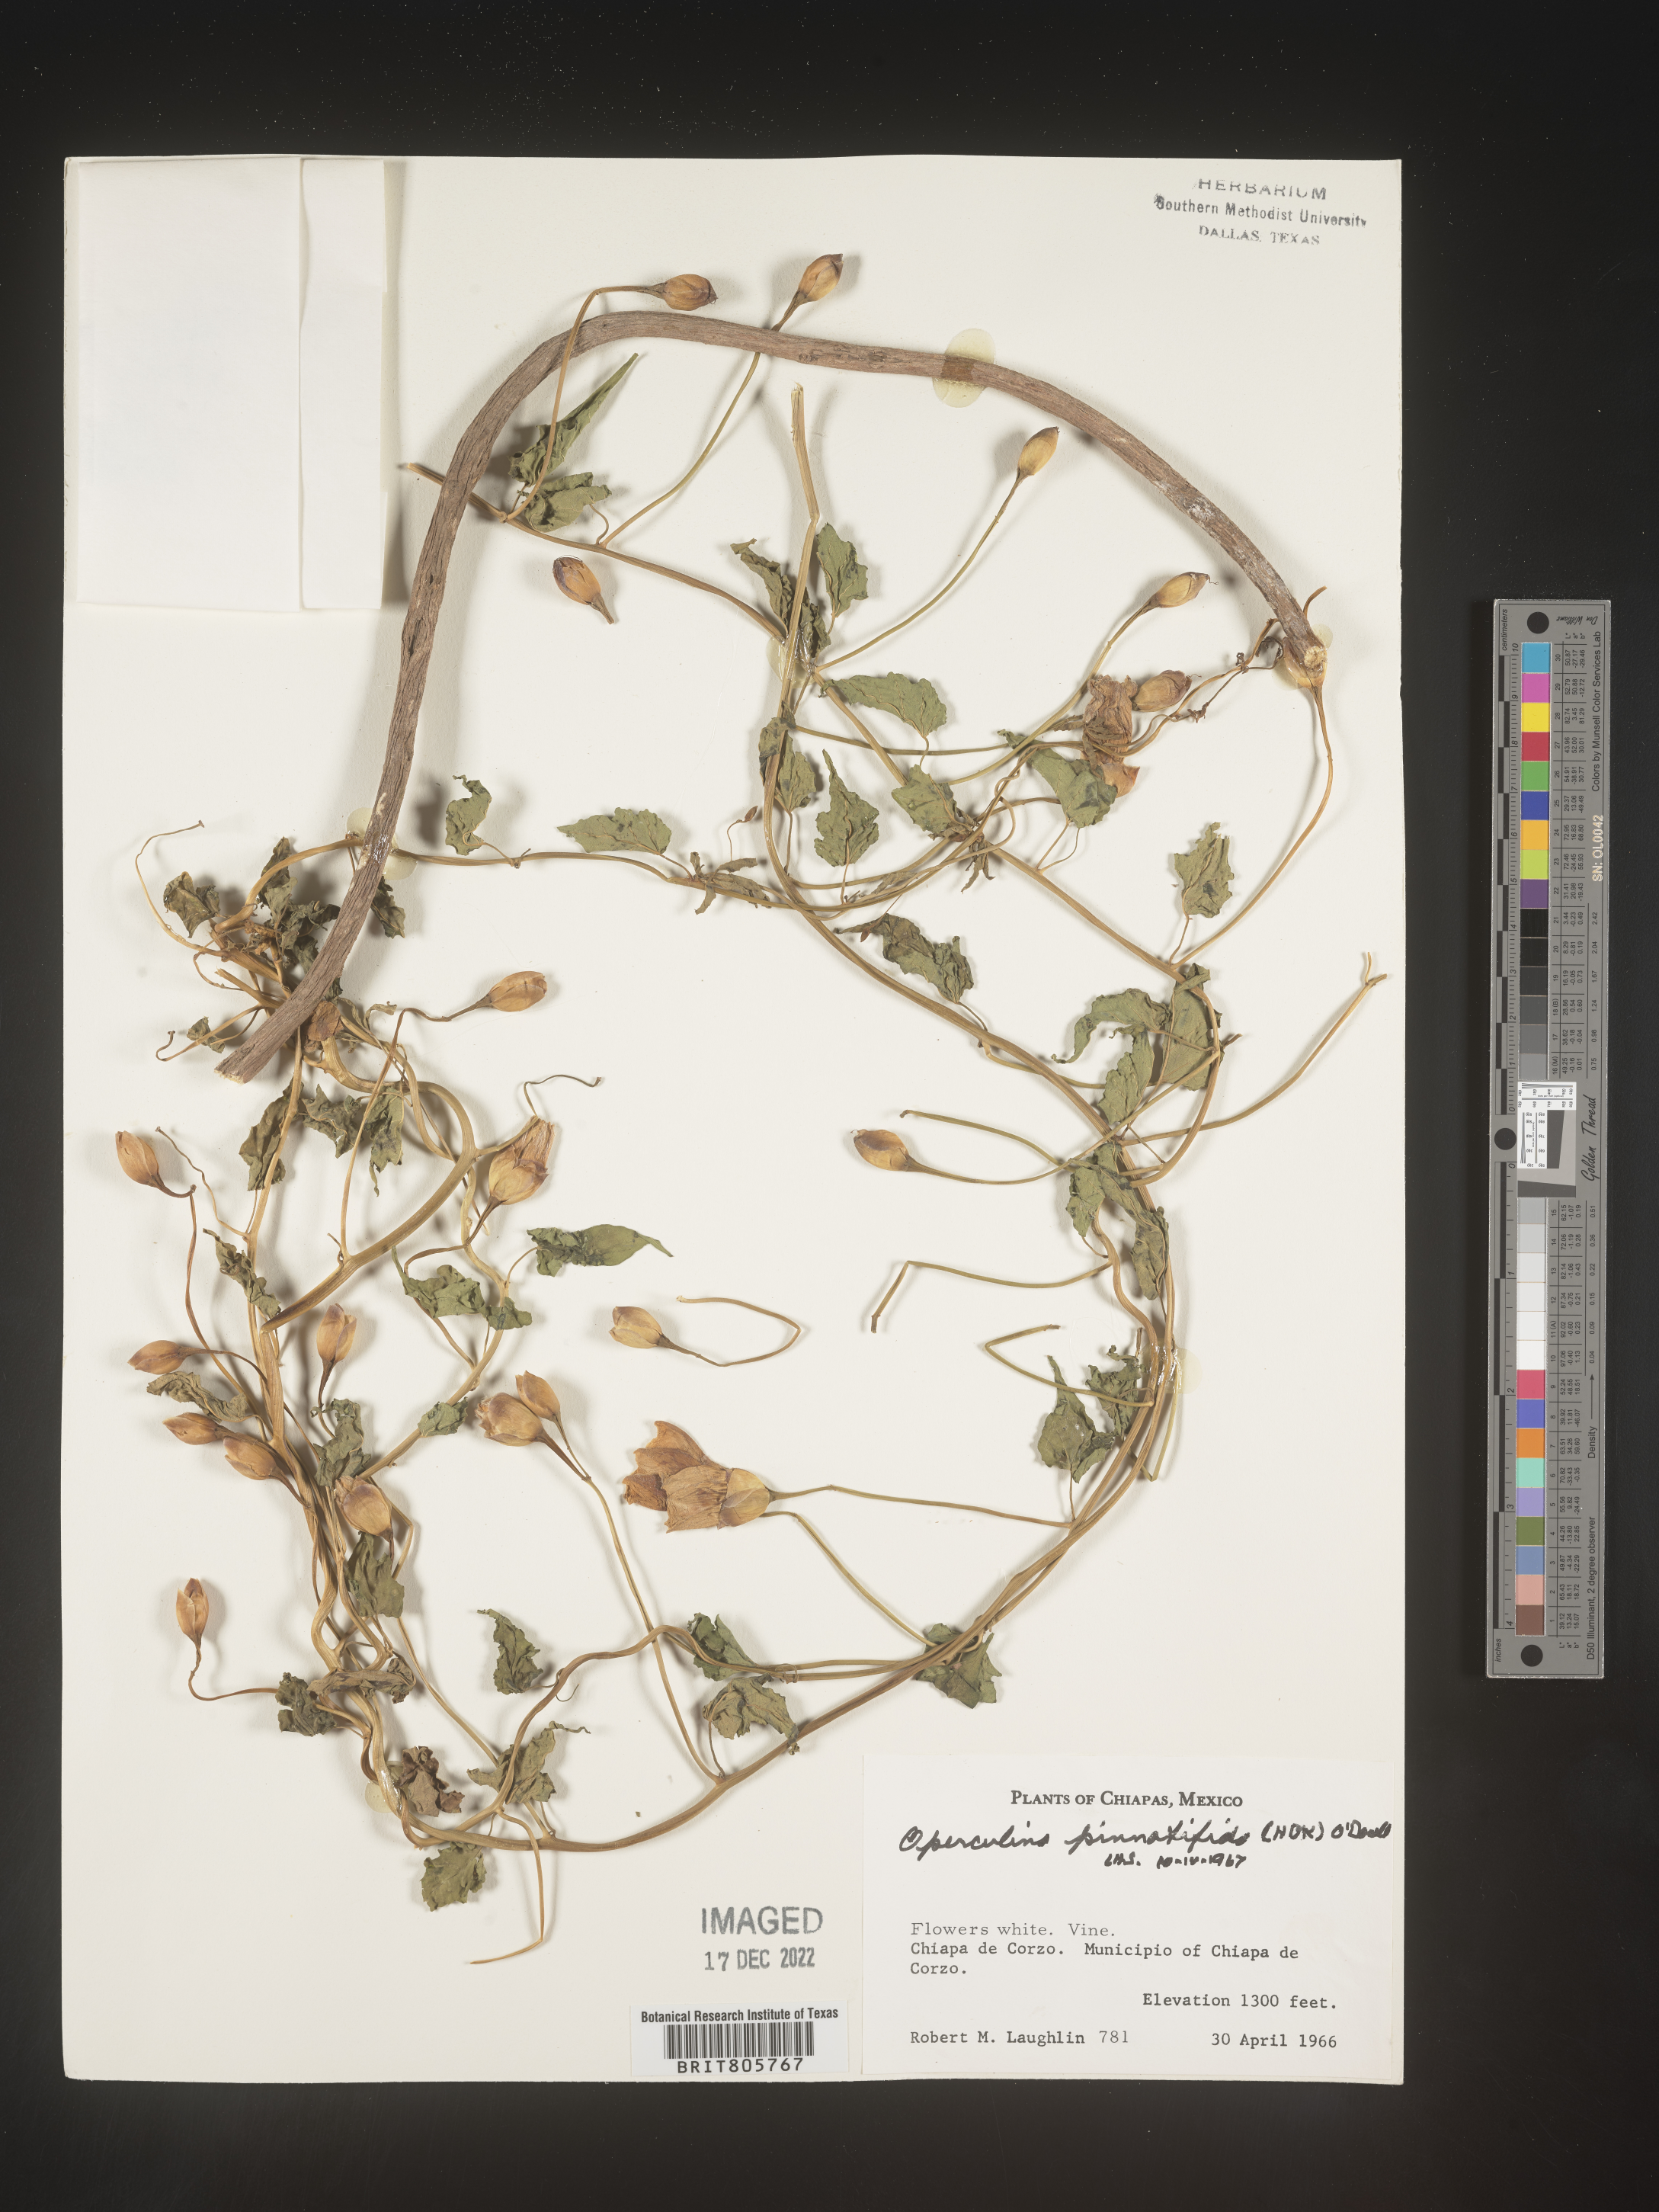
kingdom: Plantae
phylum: Tracheophyta
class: Magnoliopsida
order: Solanales
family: Convolvulaceae
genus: Operculina
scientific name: Operculina
